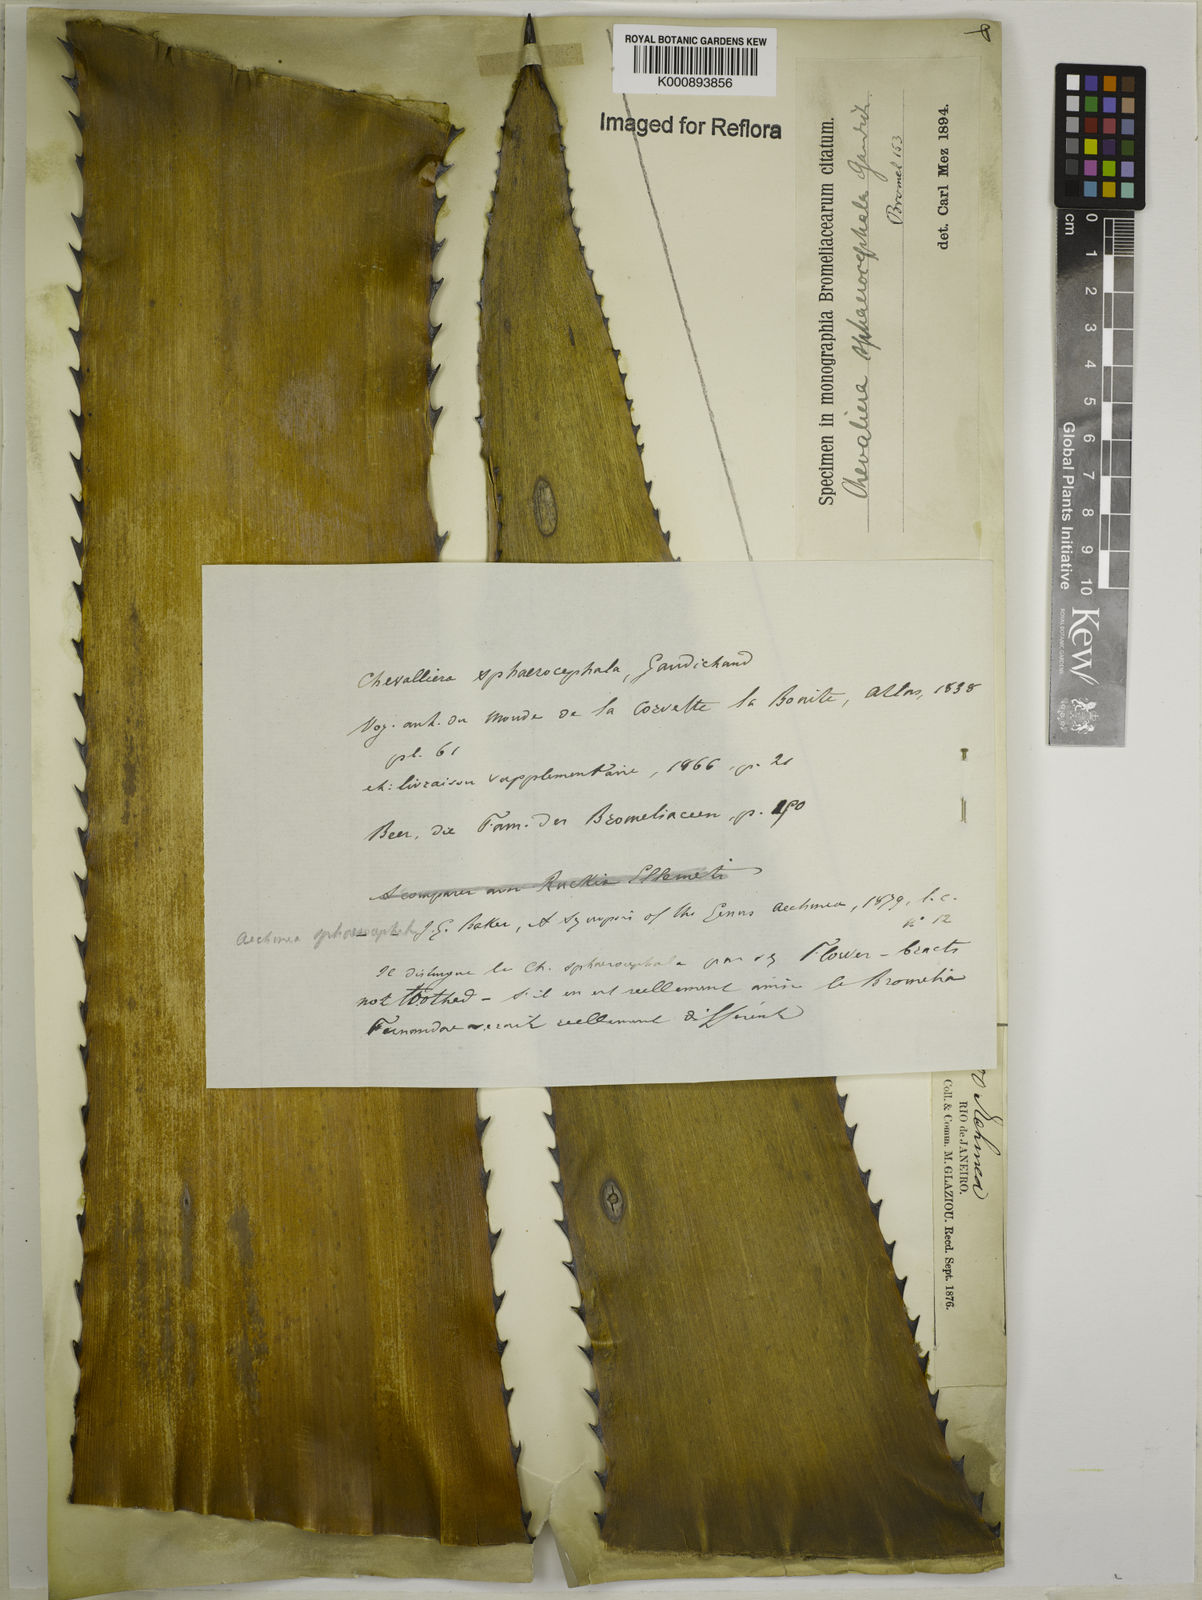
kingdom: Plantae
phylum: Tracheophyta
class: Liliopsida
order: Poales
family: Bromeliaceae
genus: Aechmea
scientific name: Aechmea sphaerocephala
